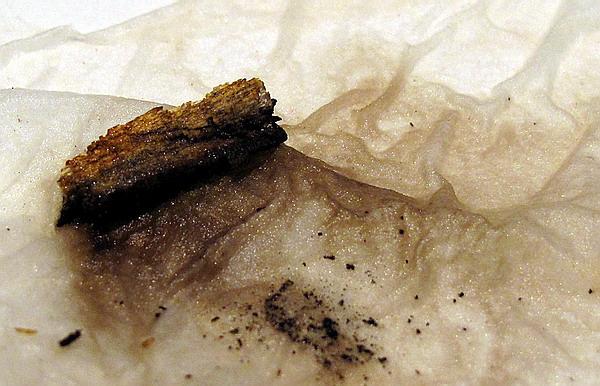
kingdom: Fungi
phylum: Ascomycota
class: Sordariomycetes
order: Xylariales
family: Hypoxylaceae
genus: Hypoxylon
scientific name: Hypoxylon macrocarpum
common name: skorpe-kulbær
